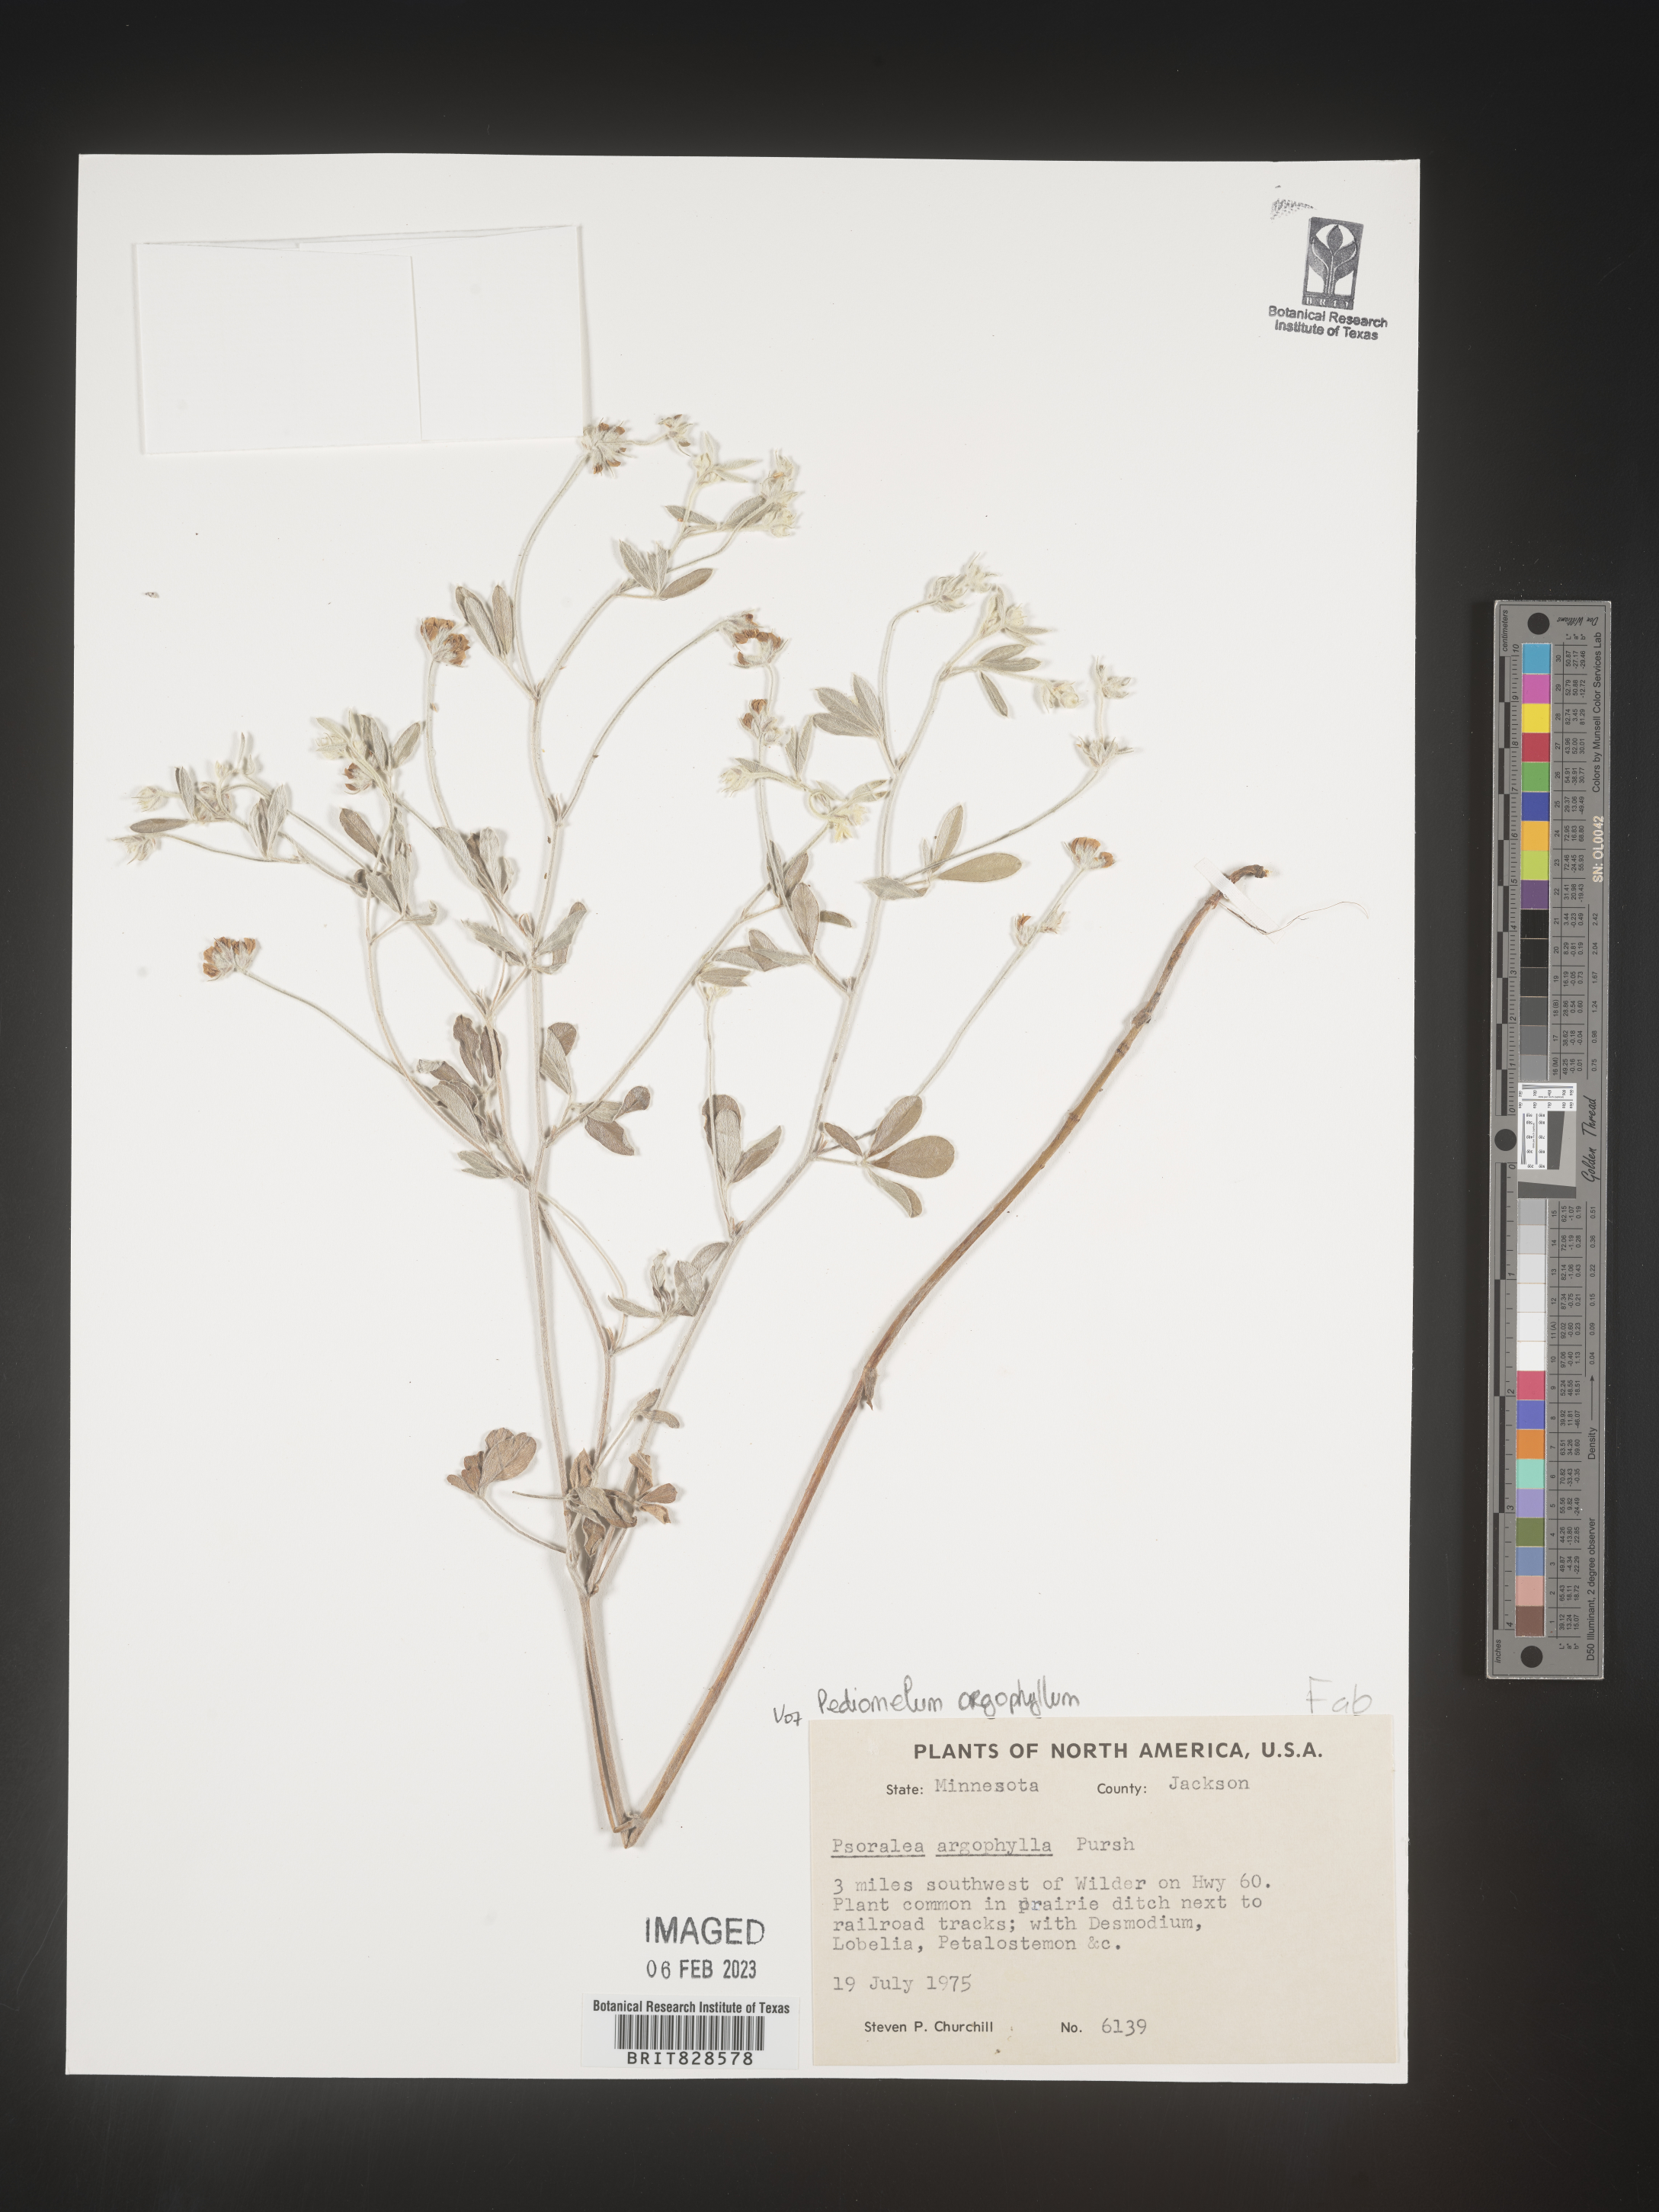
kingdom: Plantae
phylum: Tracheophyta
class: Magnoliopsida
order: Fabales
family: Fabaceae
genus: Pediomelum
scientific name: Pediomelum
